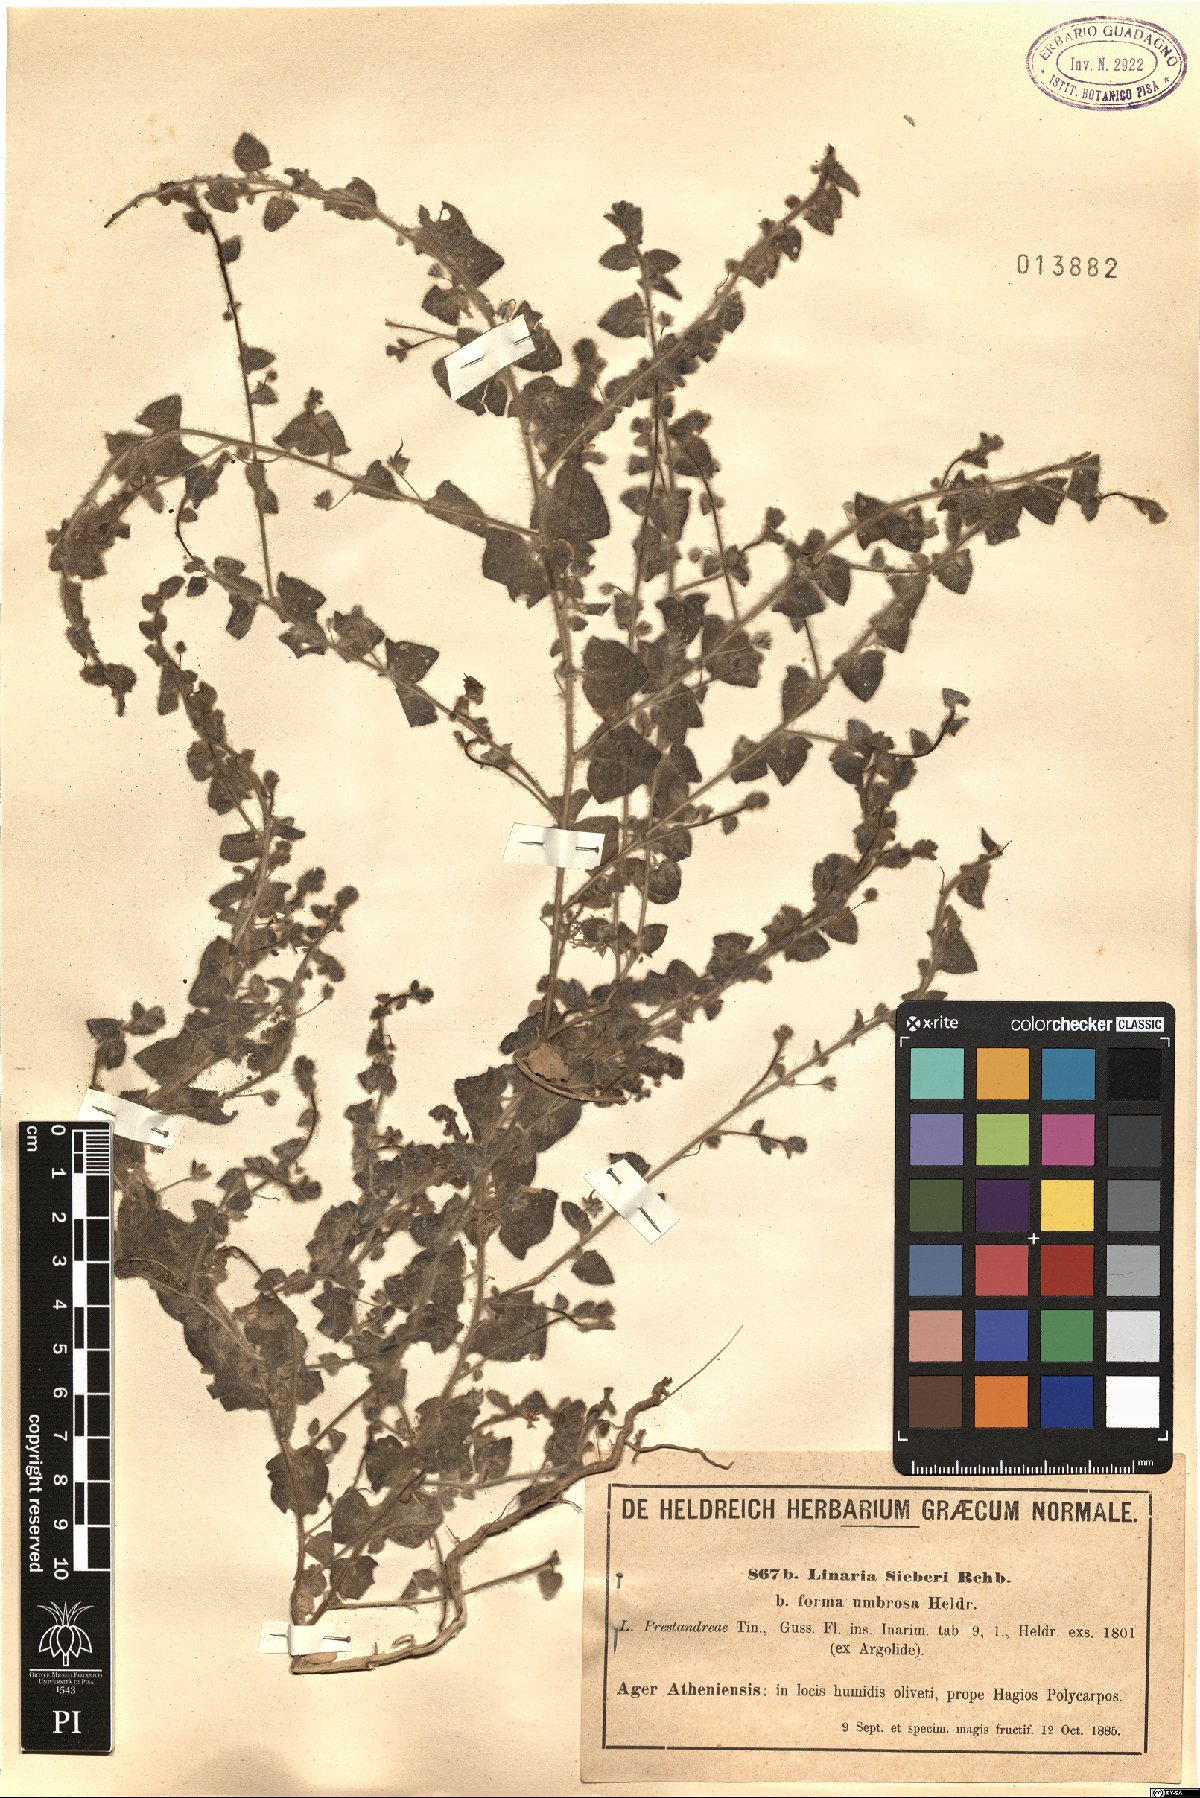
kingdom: Plantae
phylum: Tracheophyta
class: Magnoliopsida
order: Lamiales
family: Plantaginaceae
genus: Kickxia
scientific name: Kickxia elatine
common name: Sharp-leaved fluellen
